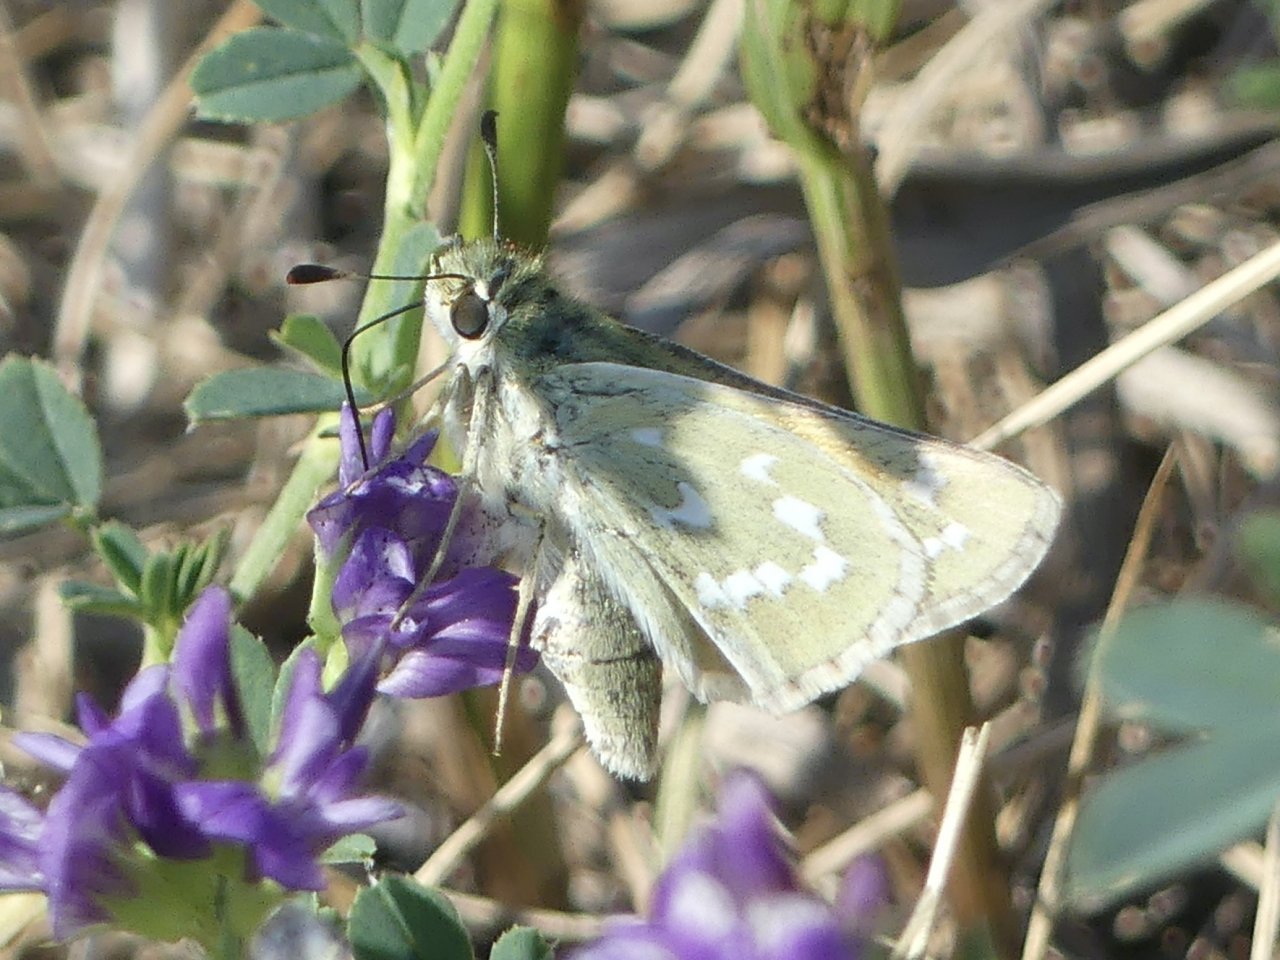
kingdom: Animalia
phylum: Arthropoda
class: Insecta
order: Lepidoptera
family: Hesperiidae
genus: Hesperia
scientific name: Hesperia comma
